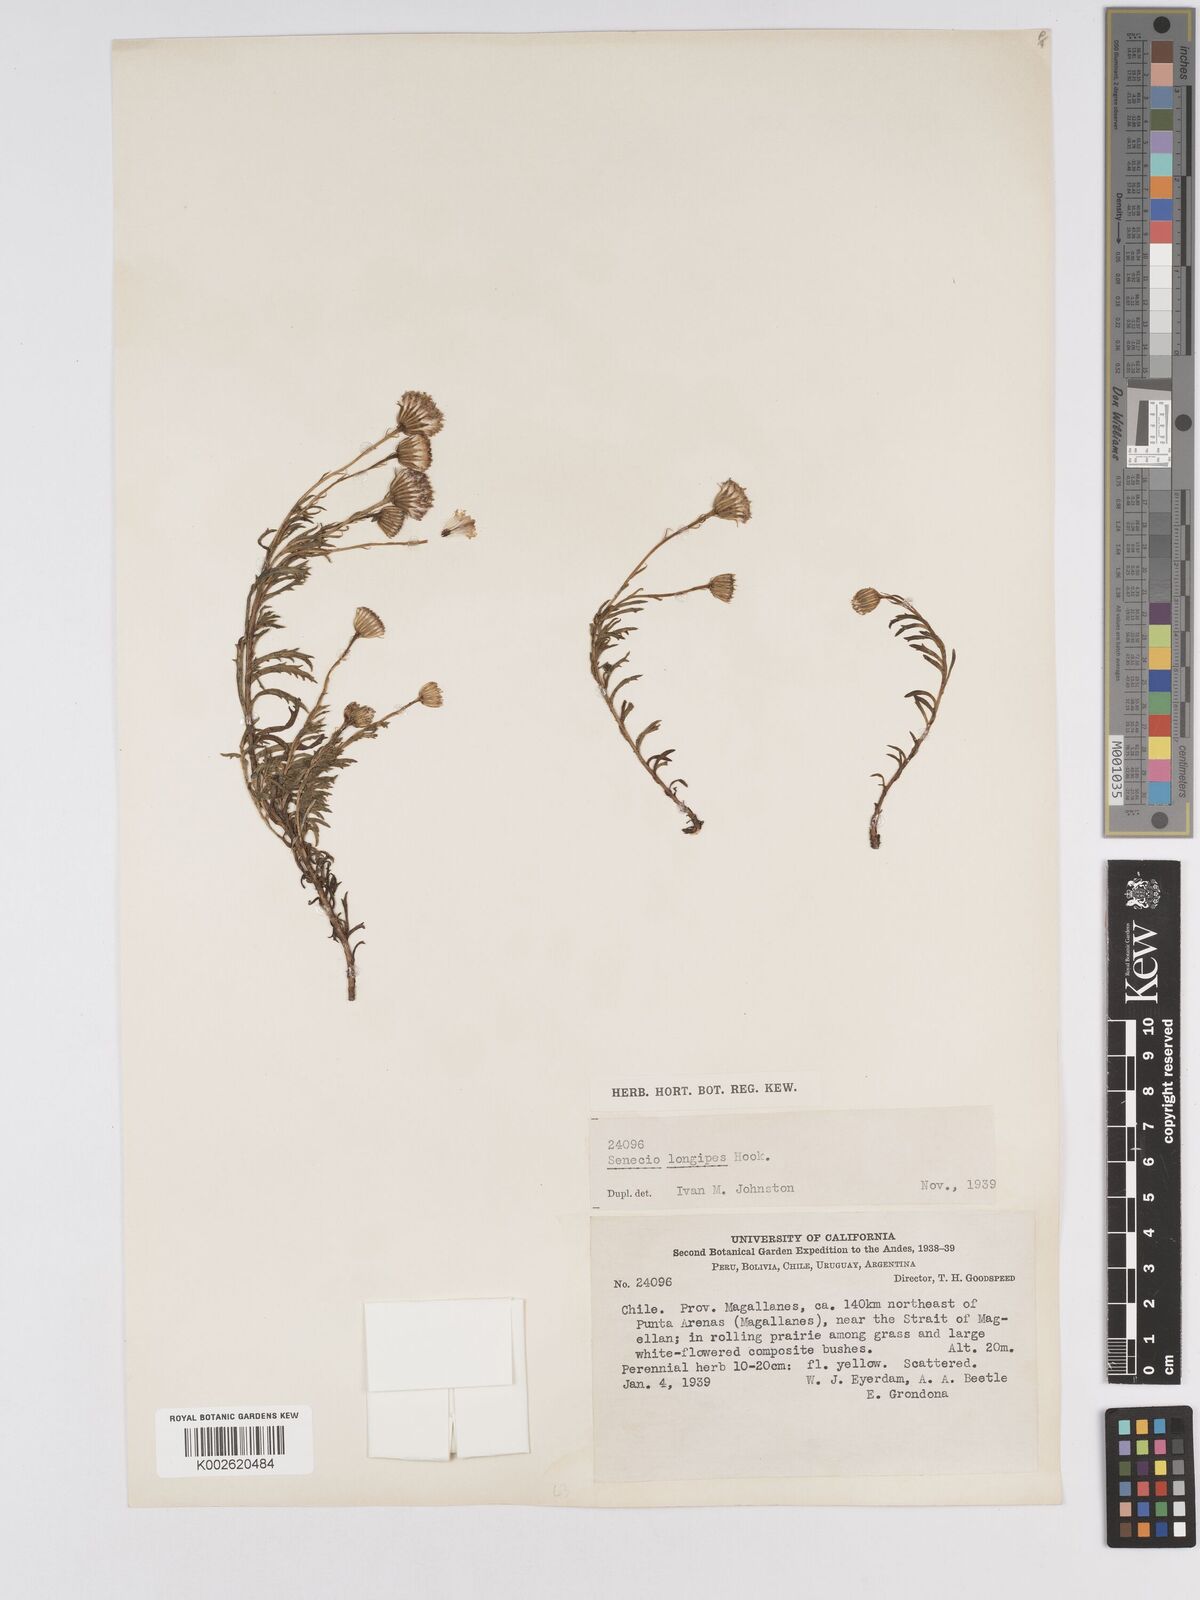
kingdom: Plantae
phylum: Tracheophyta
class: Magnoliopsida
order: Asterales
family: Asteraceae
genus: Senecio
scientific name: Senecio tricuspidatus
